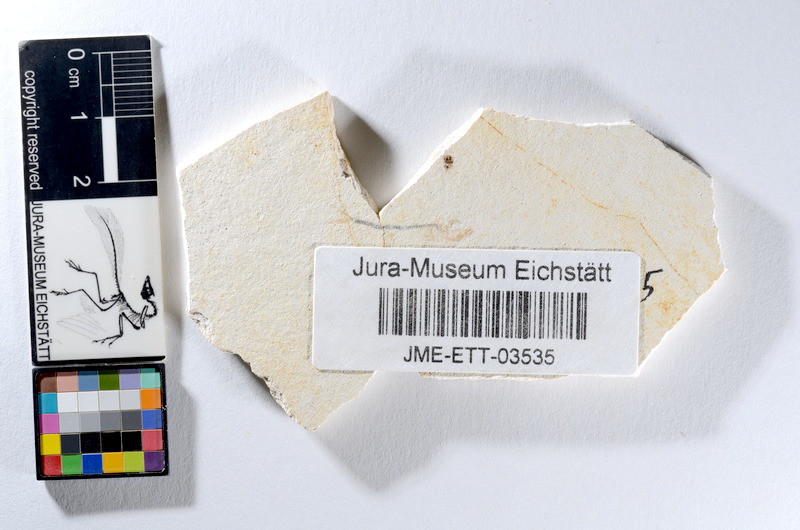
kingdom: Animalia
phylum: Chordata
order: Salmoniformes
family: Orthogonikleithridae
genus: Orthogonikleithrus
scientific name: Orthogonikleithrus hoelli
